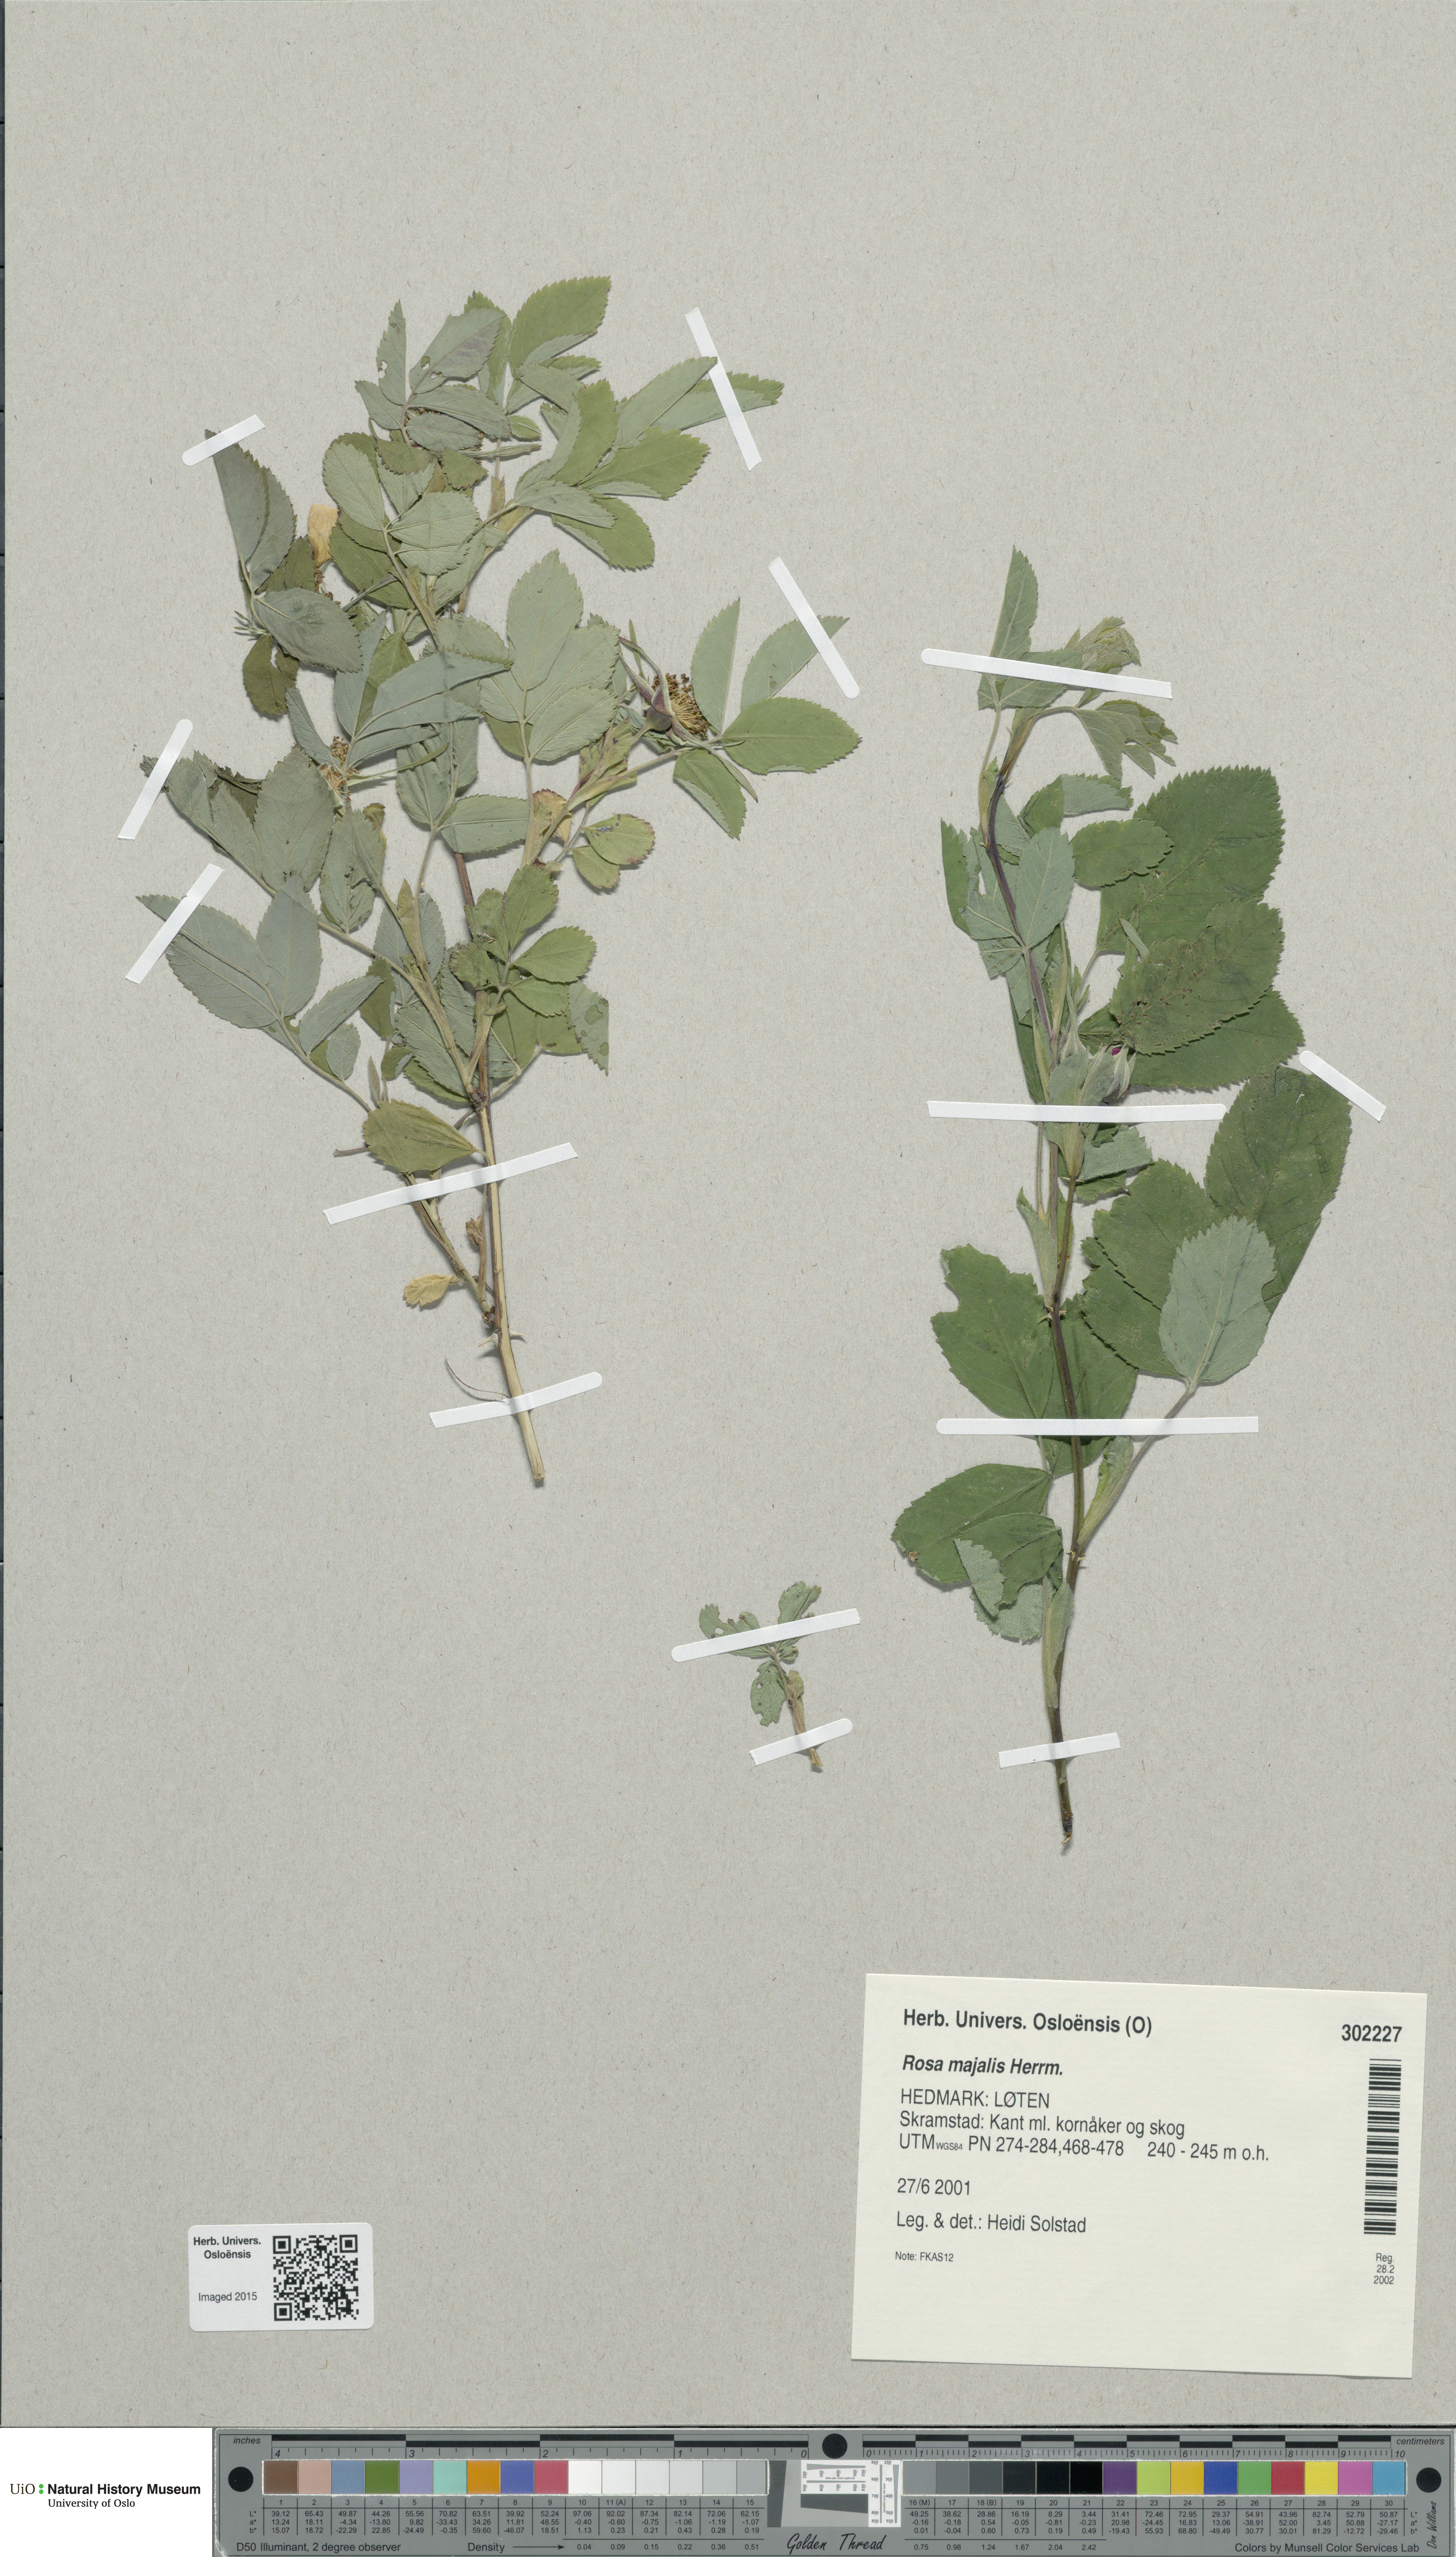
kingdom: Plantae
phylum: Tracheophyta
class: Magnoliopsida
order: Rosales
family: Rosaceae
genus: Rosa
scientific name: Rosa majalis
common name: Cinnamon rose
